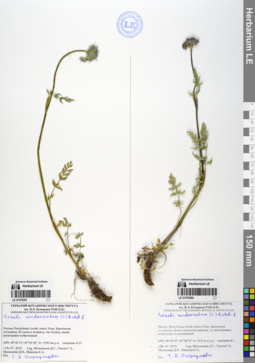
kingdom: Plantae
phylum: Tracheophyta
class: Magnoliopsida
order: Apiales
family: Apiaceae
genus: Seseli
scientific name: Seseli condensatum
